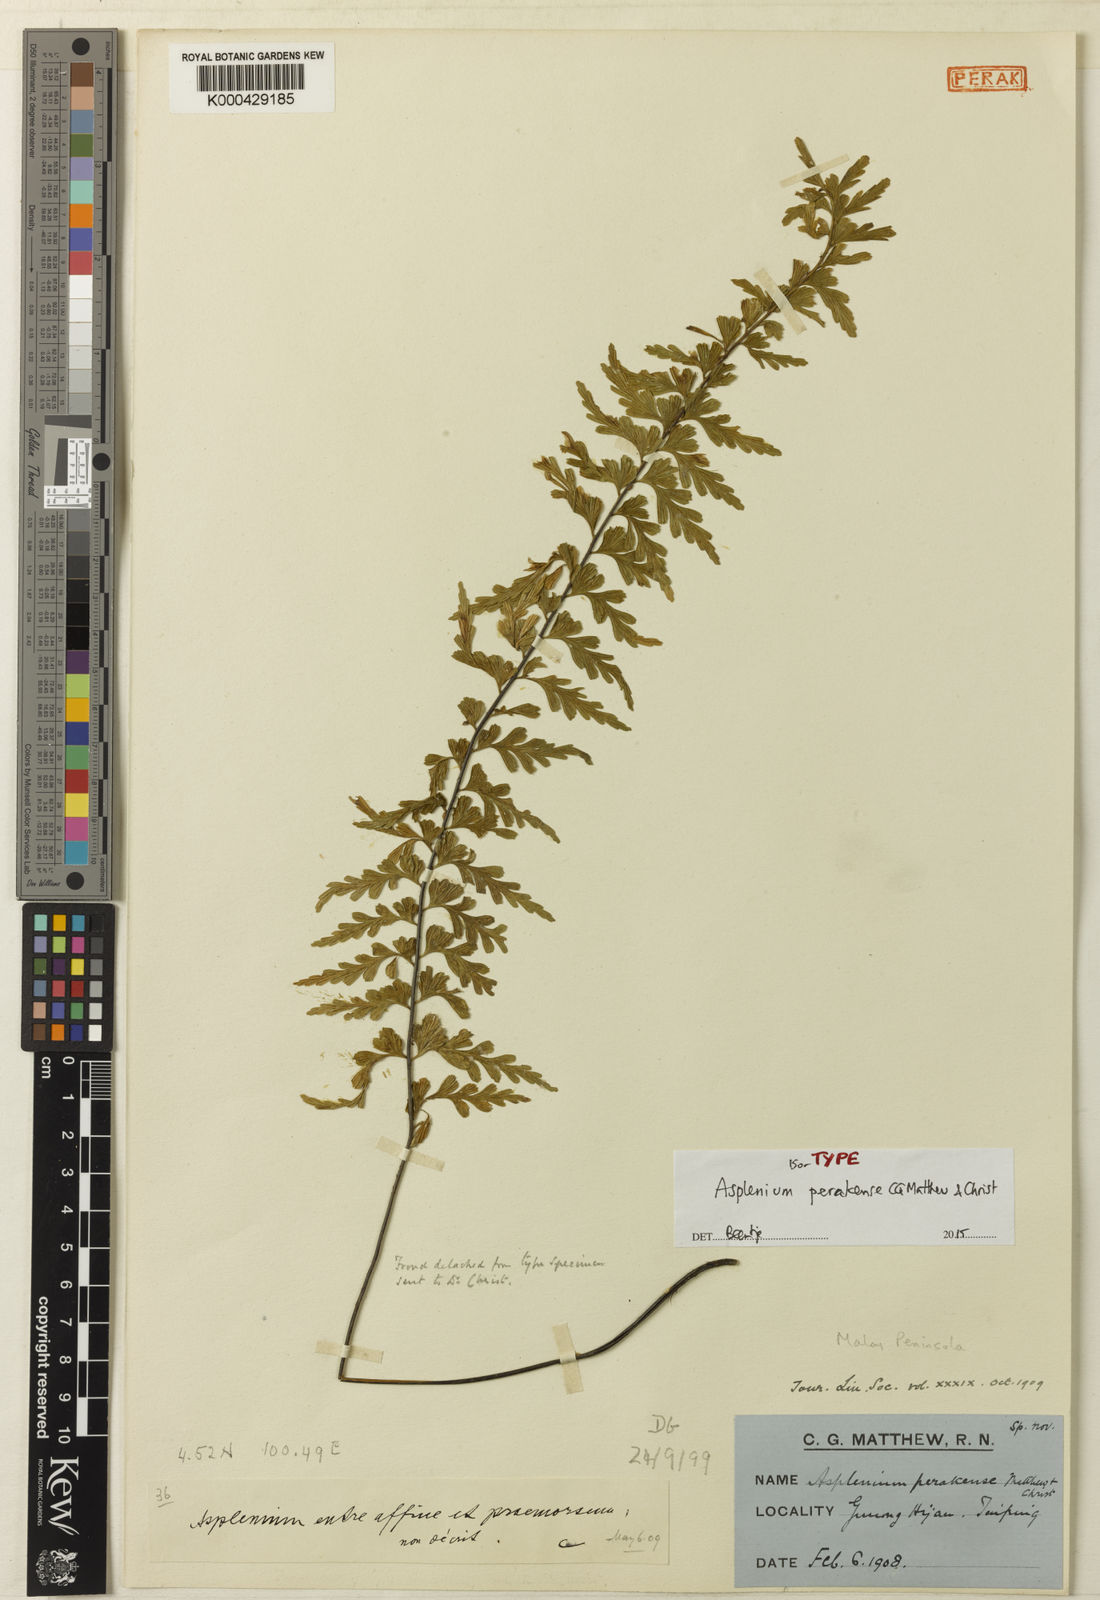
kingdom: Plantae
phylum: Tracheophyta
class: Polypodiopsida
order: Polypodiales
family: Aspleniaceae
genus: Asplenium
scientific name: Asplenium perakense
